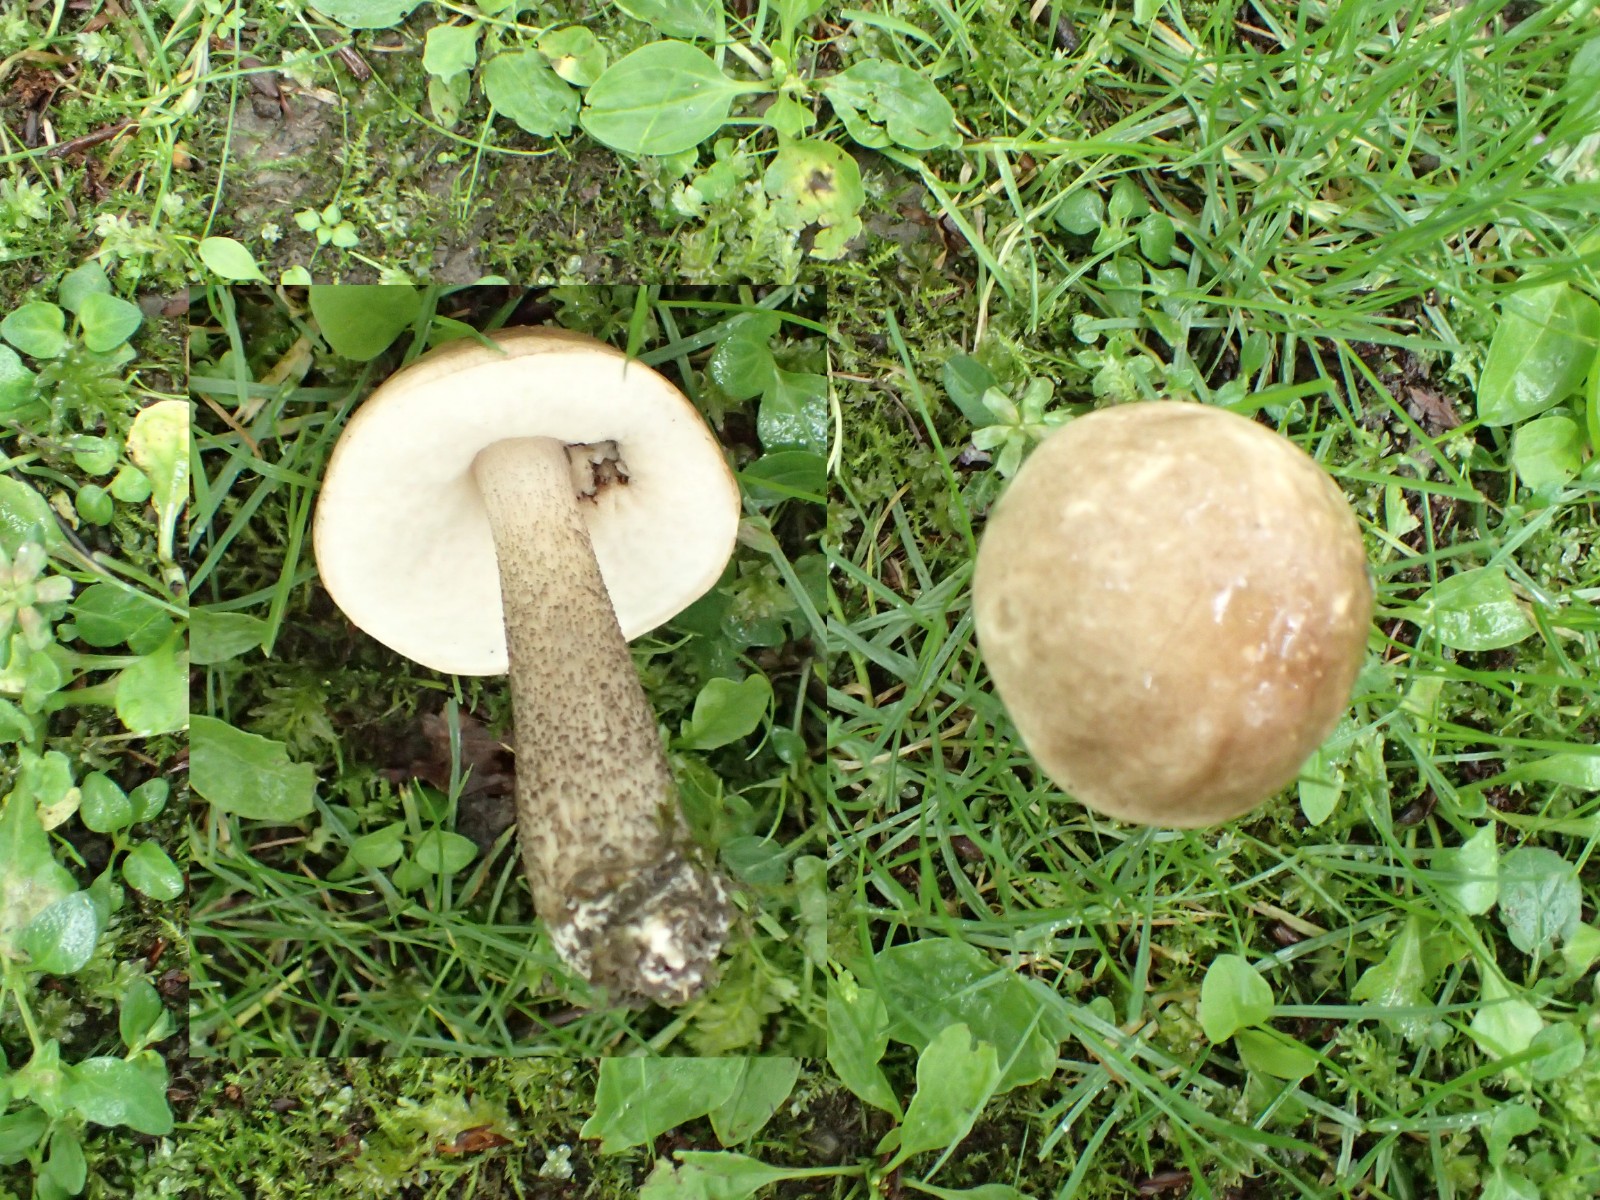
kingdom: Fungi
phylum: Basidiomycota
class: Agaricomycetes
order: Boletales
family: Boletaceae
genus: Leccinum
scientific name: Leccinum scabrum
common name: brun skælrørhat
